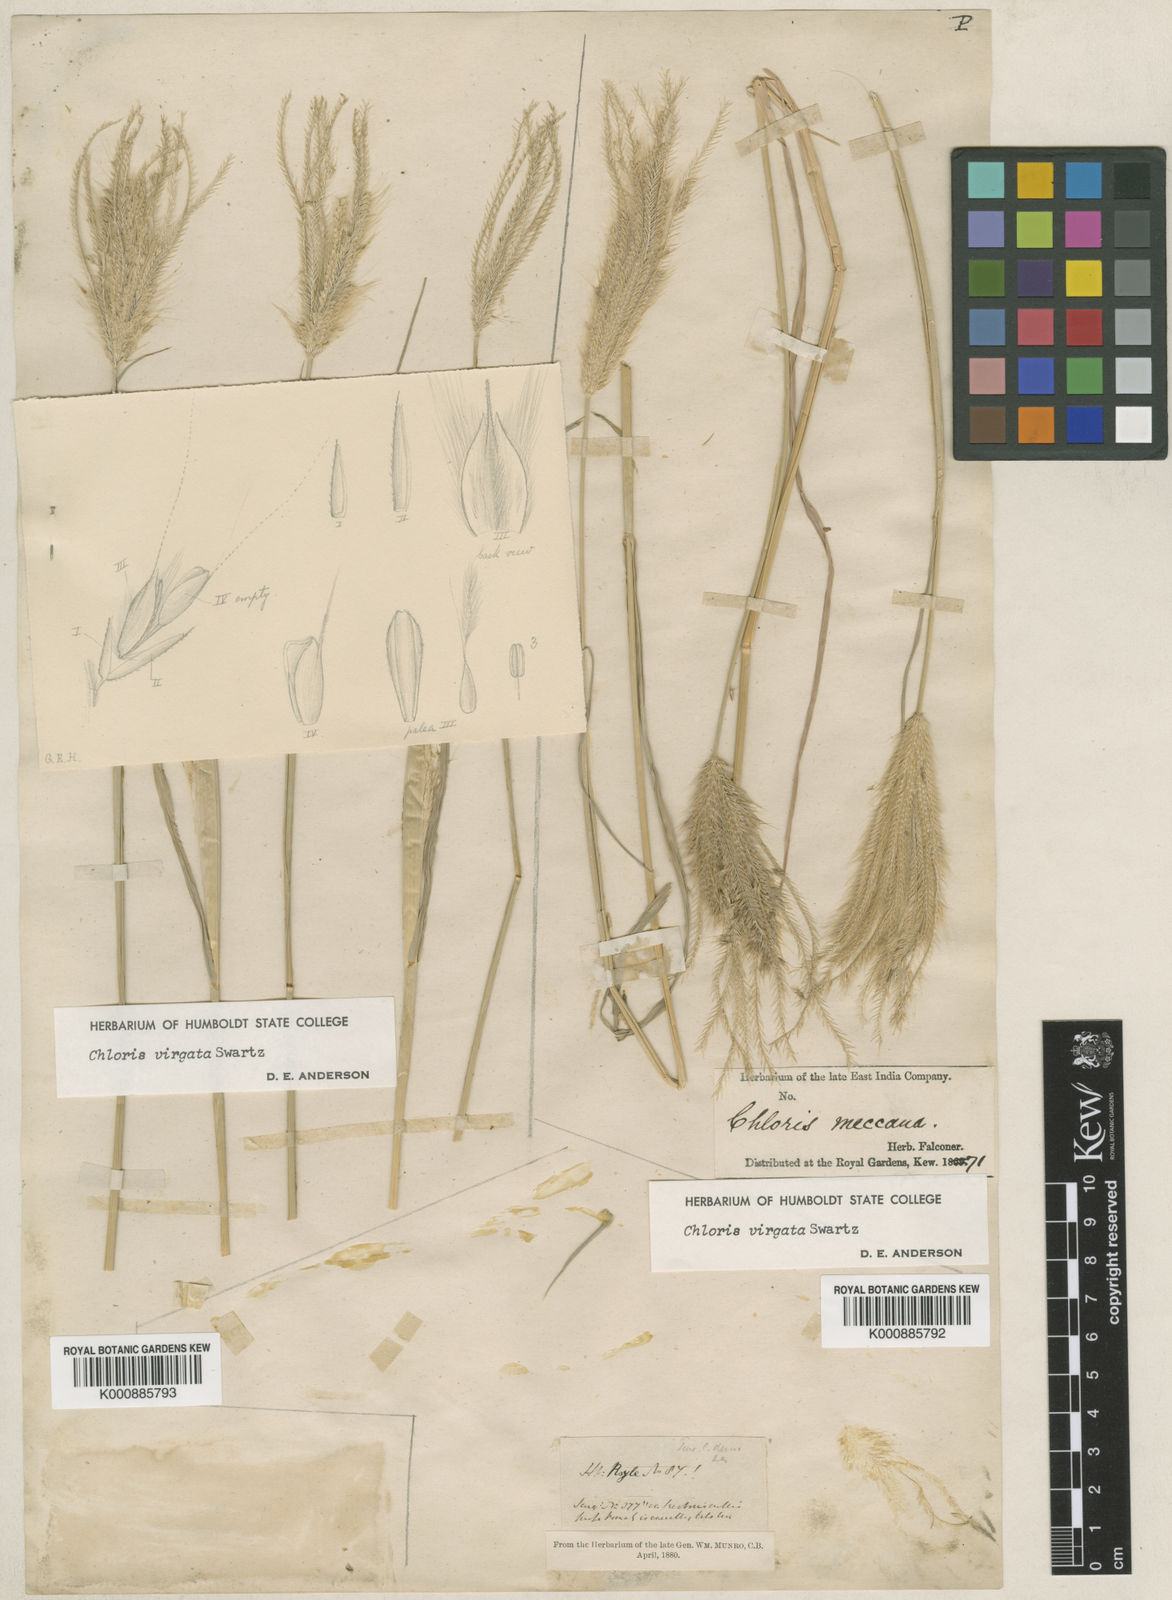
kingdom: Plantae
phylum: Tracheophyta
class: Liliopsida
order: Poales
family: Poaceae
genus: Chloris
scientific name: Chloris virgata
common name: Feathery rhodes-grass
